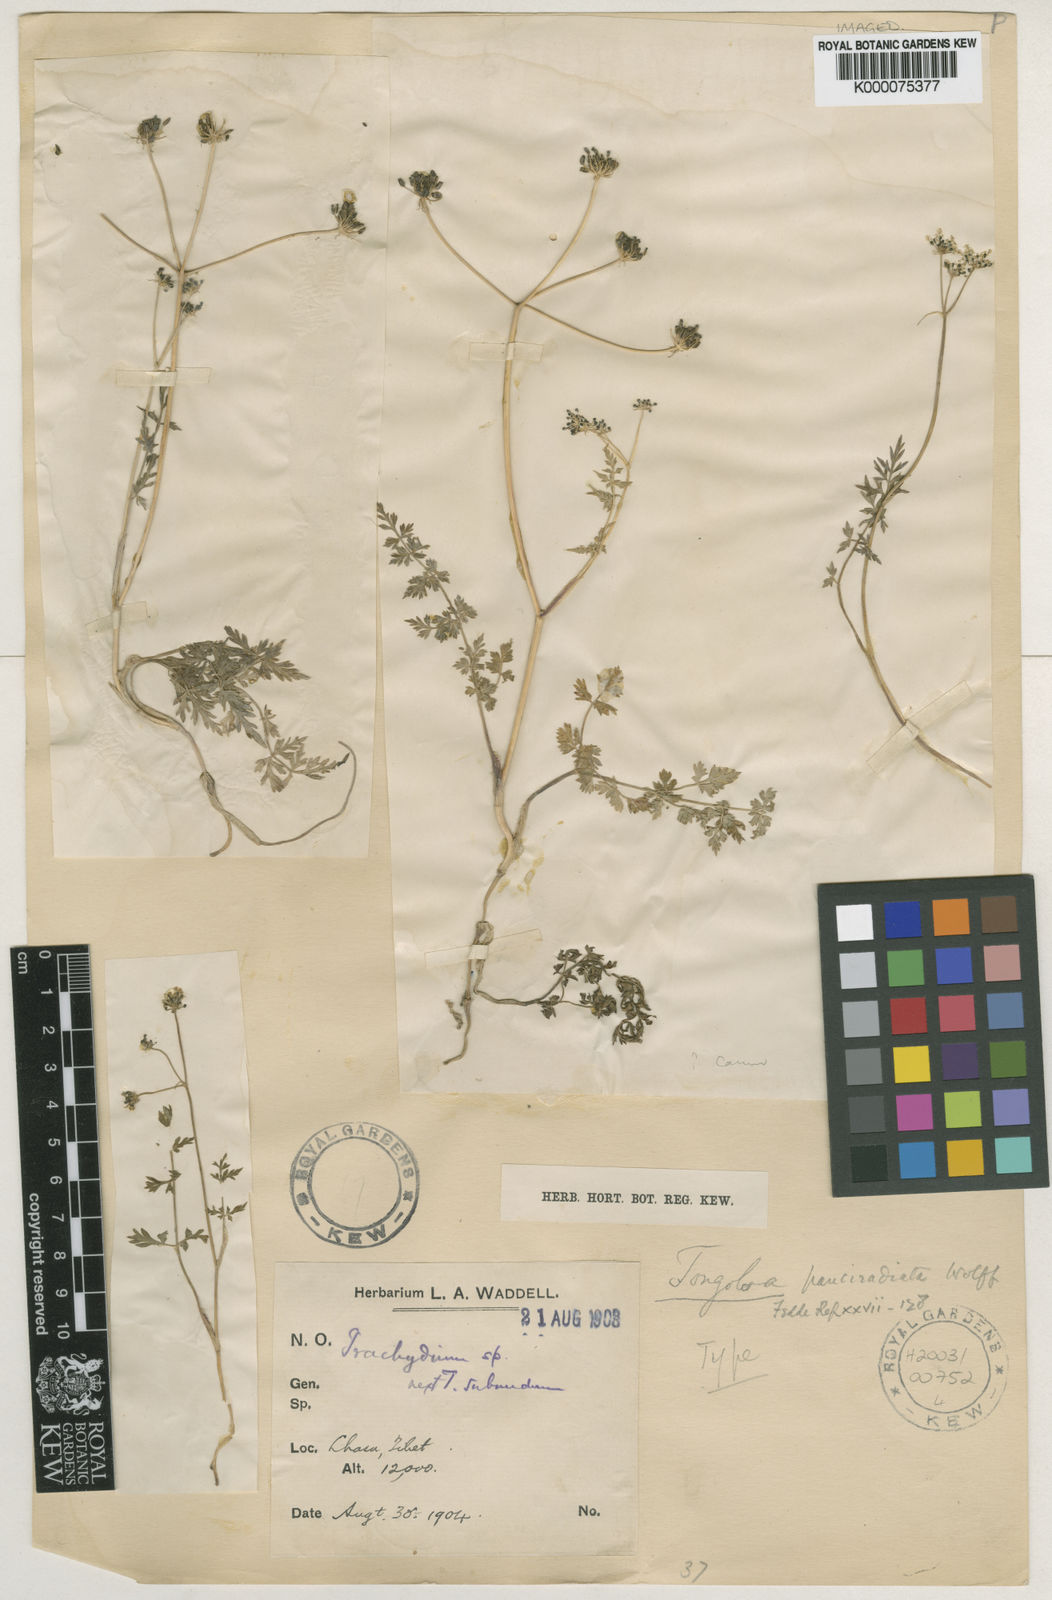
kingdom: Plantae
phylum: Tracheophyta
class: Magnoliopsida
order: Apiales
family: Apiaceae
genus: Tongoloa
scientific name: Tongoloa pauciradiata
